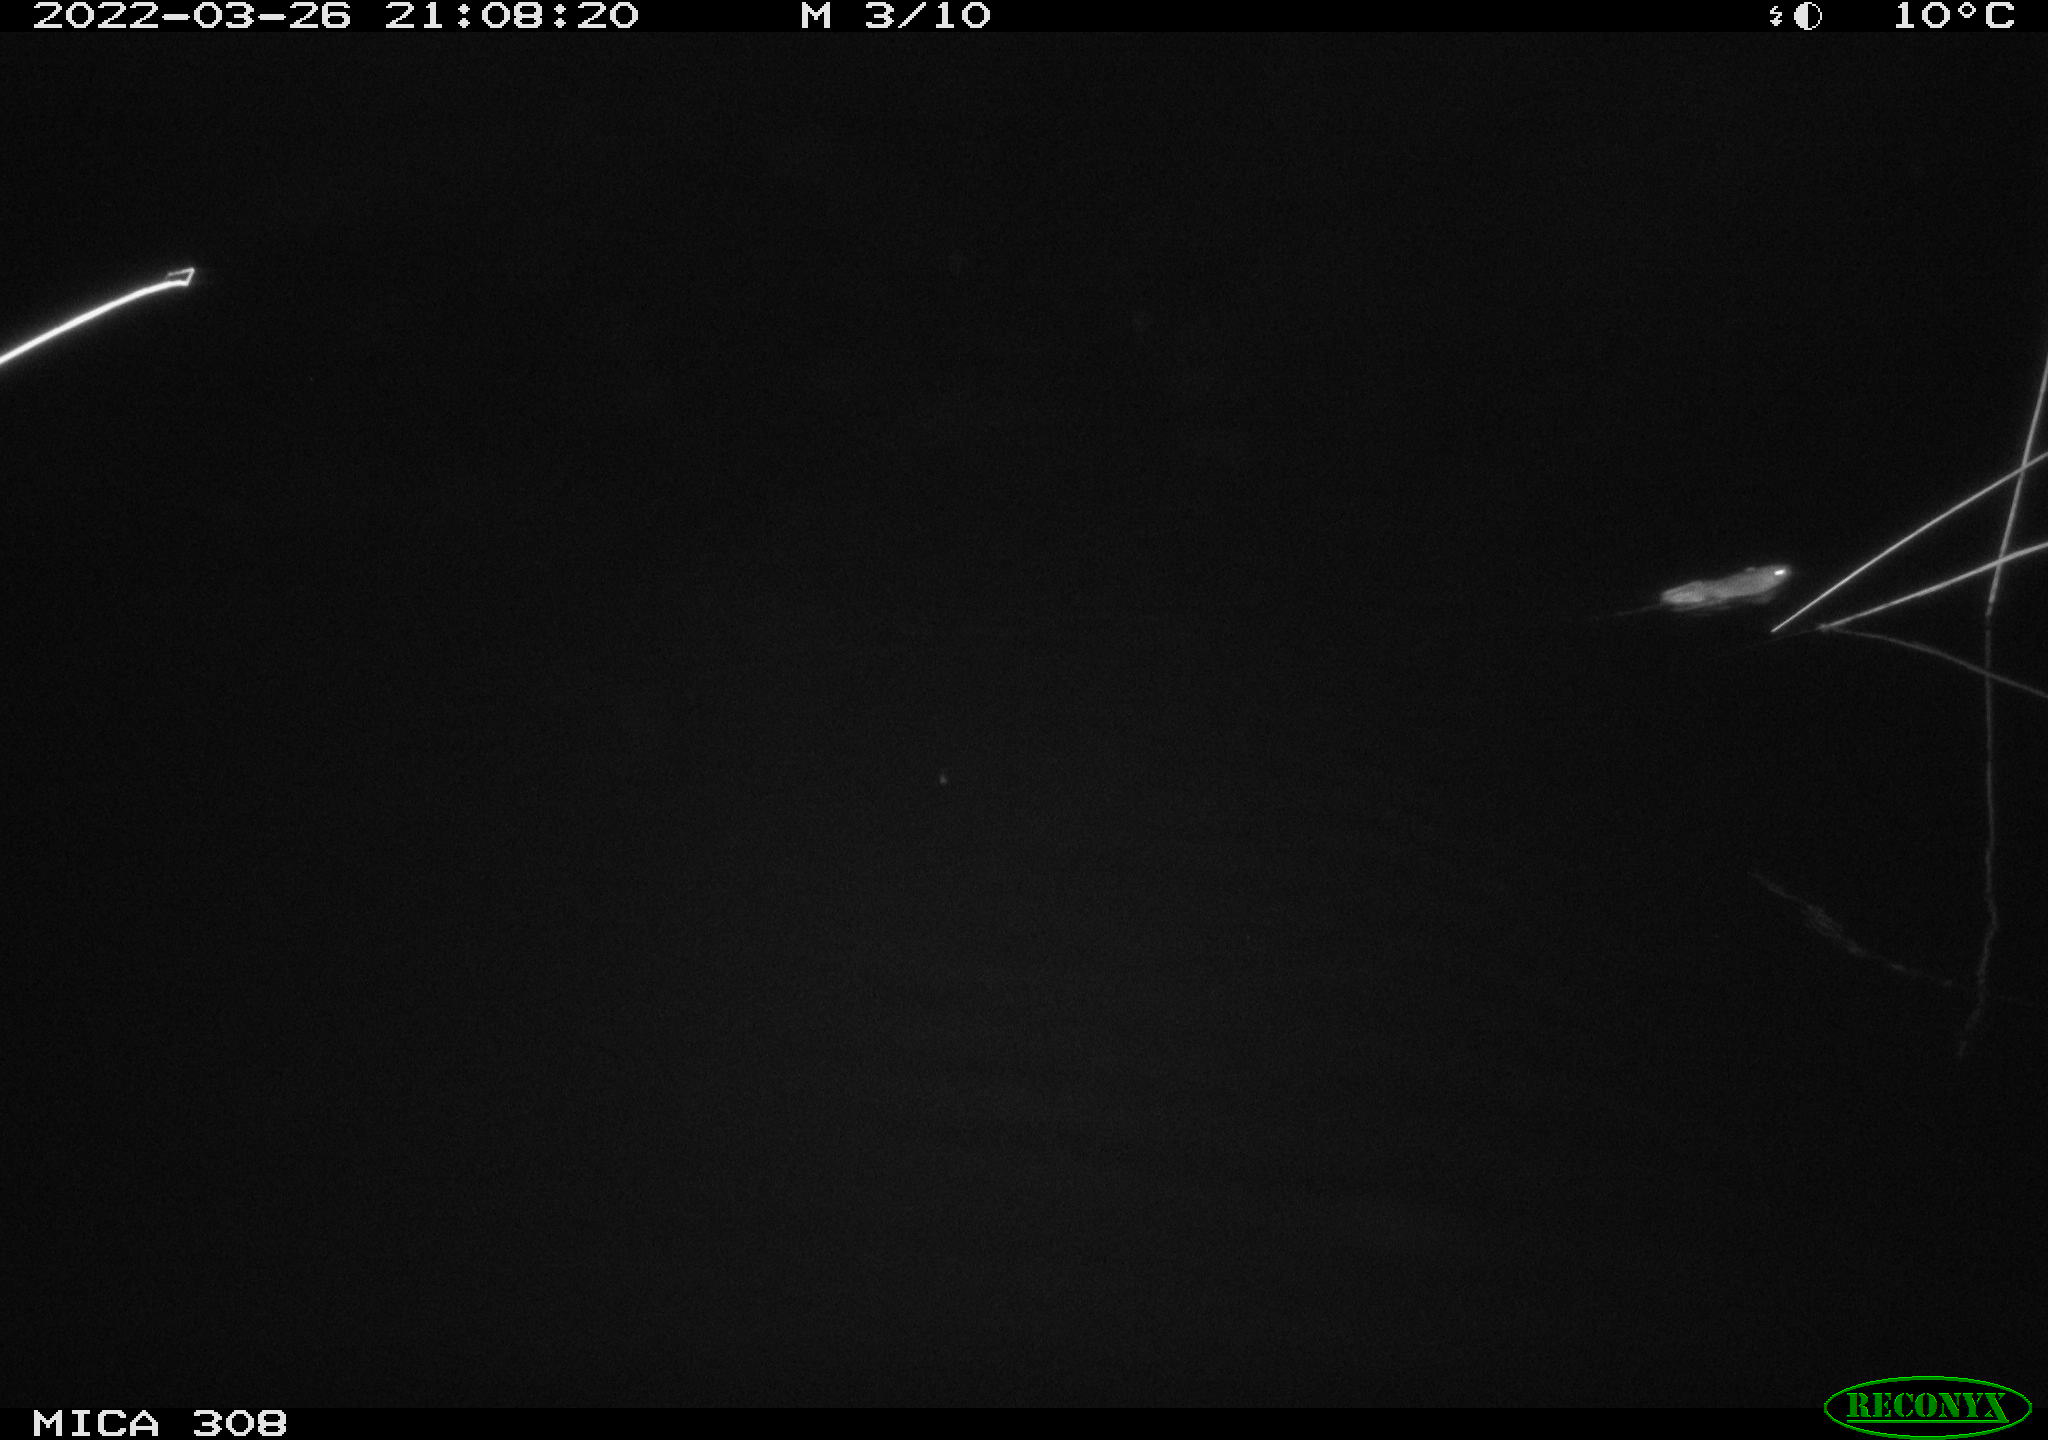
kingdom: Animalia
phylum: Chordata
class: Mammalia
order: Rodentia
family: Muridae
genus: Rattus
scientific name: Rattus norvegicus
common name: Brown rat
